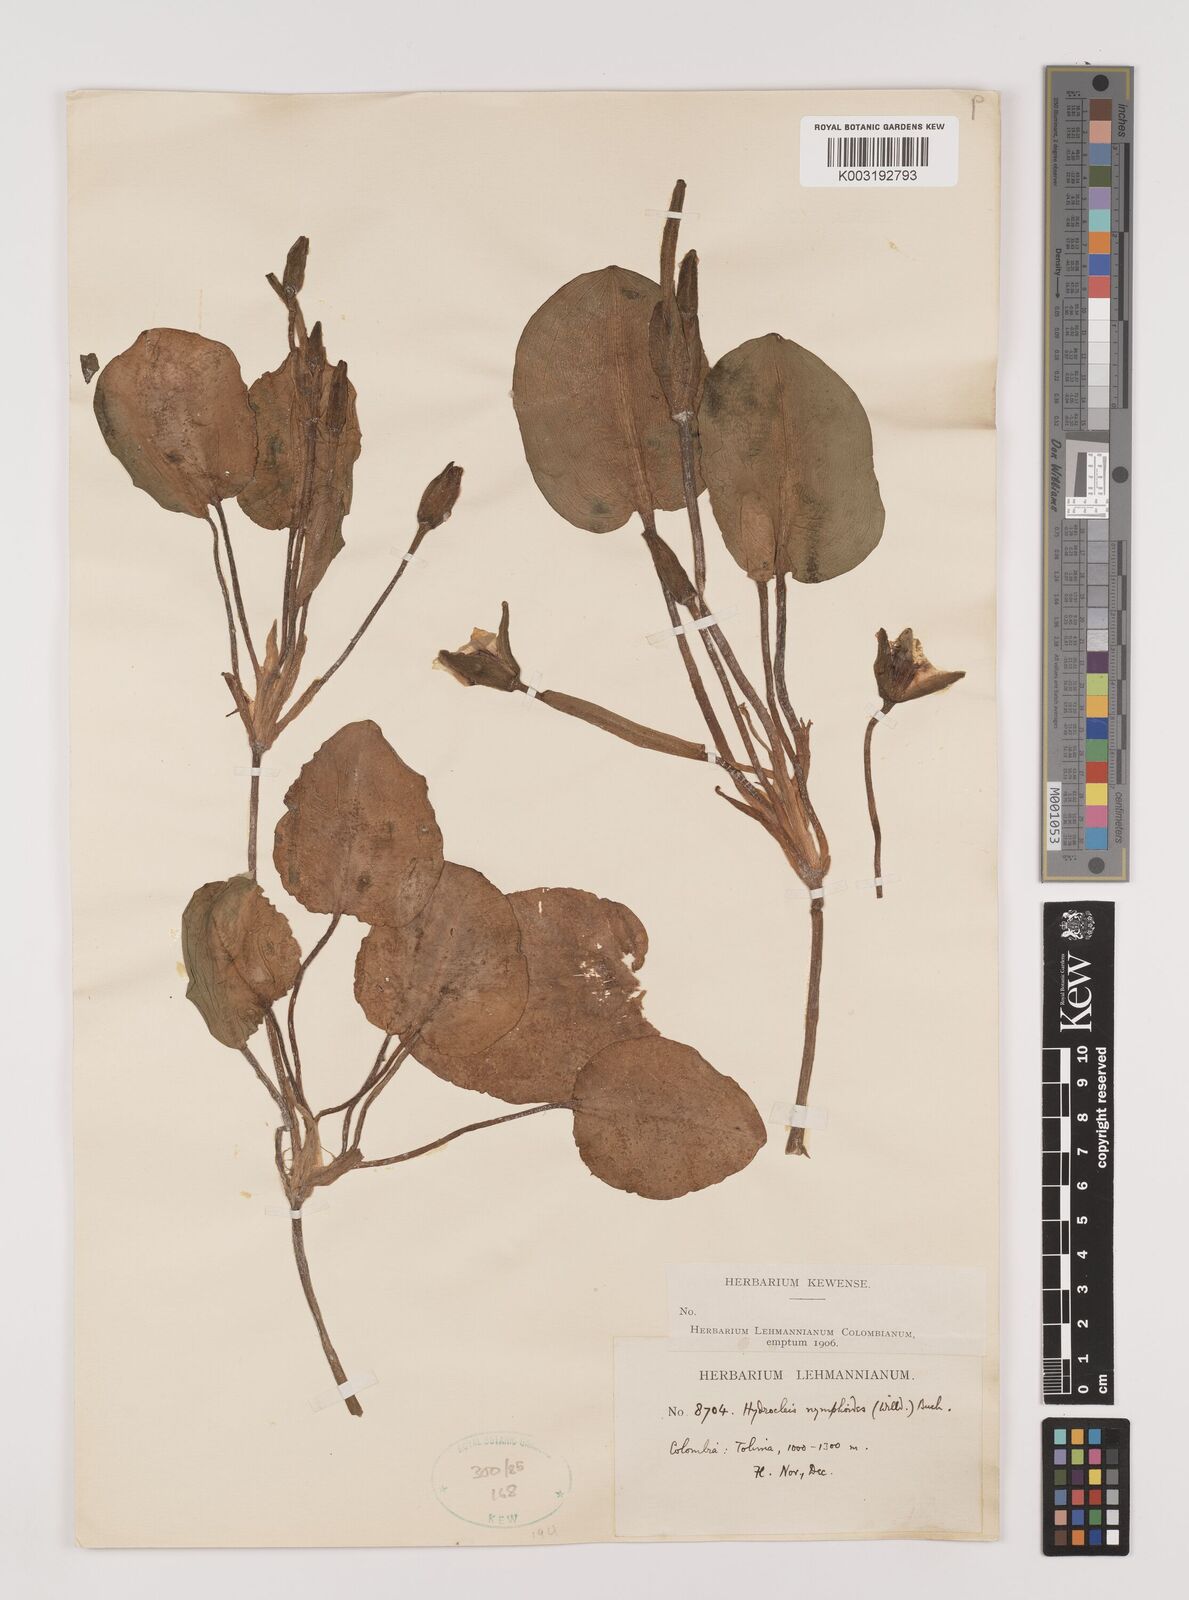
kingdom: Plantae
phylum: Tracheophyta
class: Liliopsida
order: Alismatales
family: Alismataceae
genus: Hydrocleys
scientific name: Hydrocleys nymphoides
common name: Water-poppy
